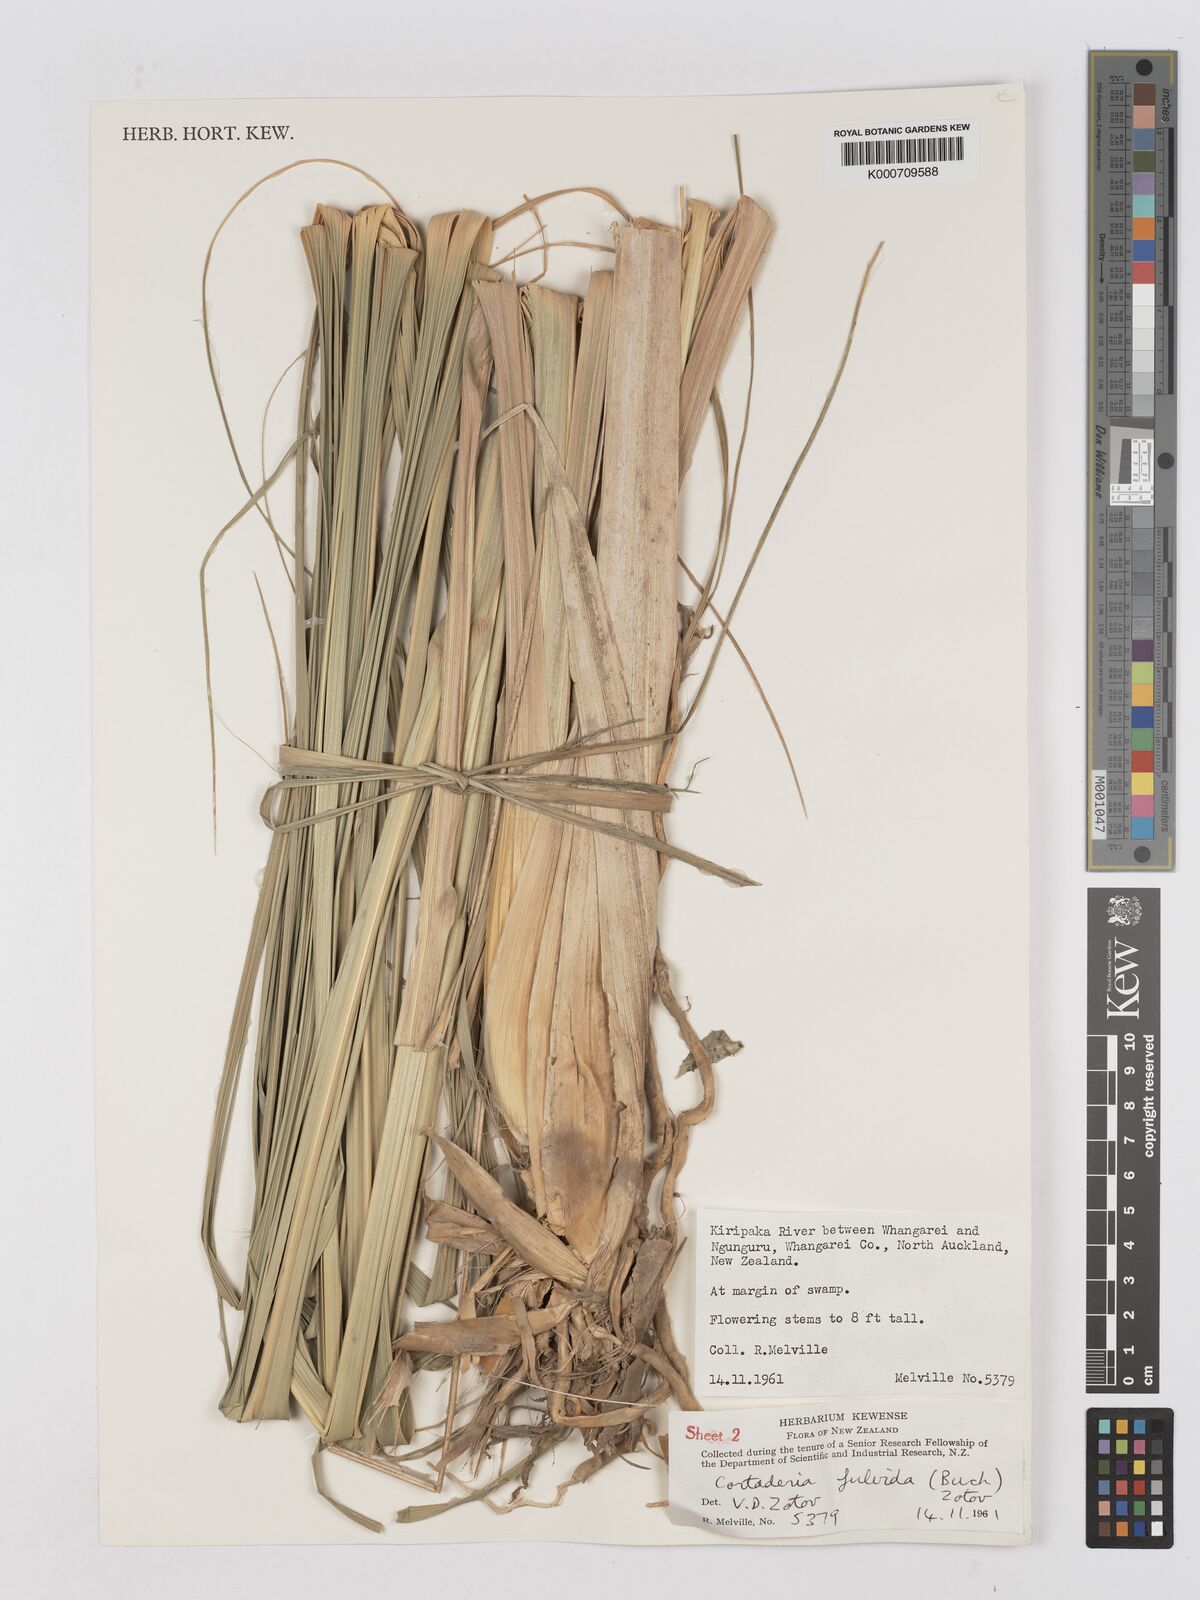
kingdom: Plantae
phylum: Tracheophyta
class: Liliopsida
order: Poales
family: Poaceae
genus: Austroderia
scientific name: Austroderia fulvida
